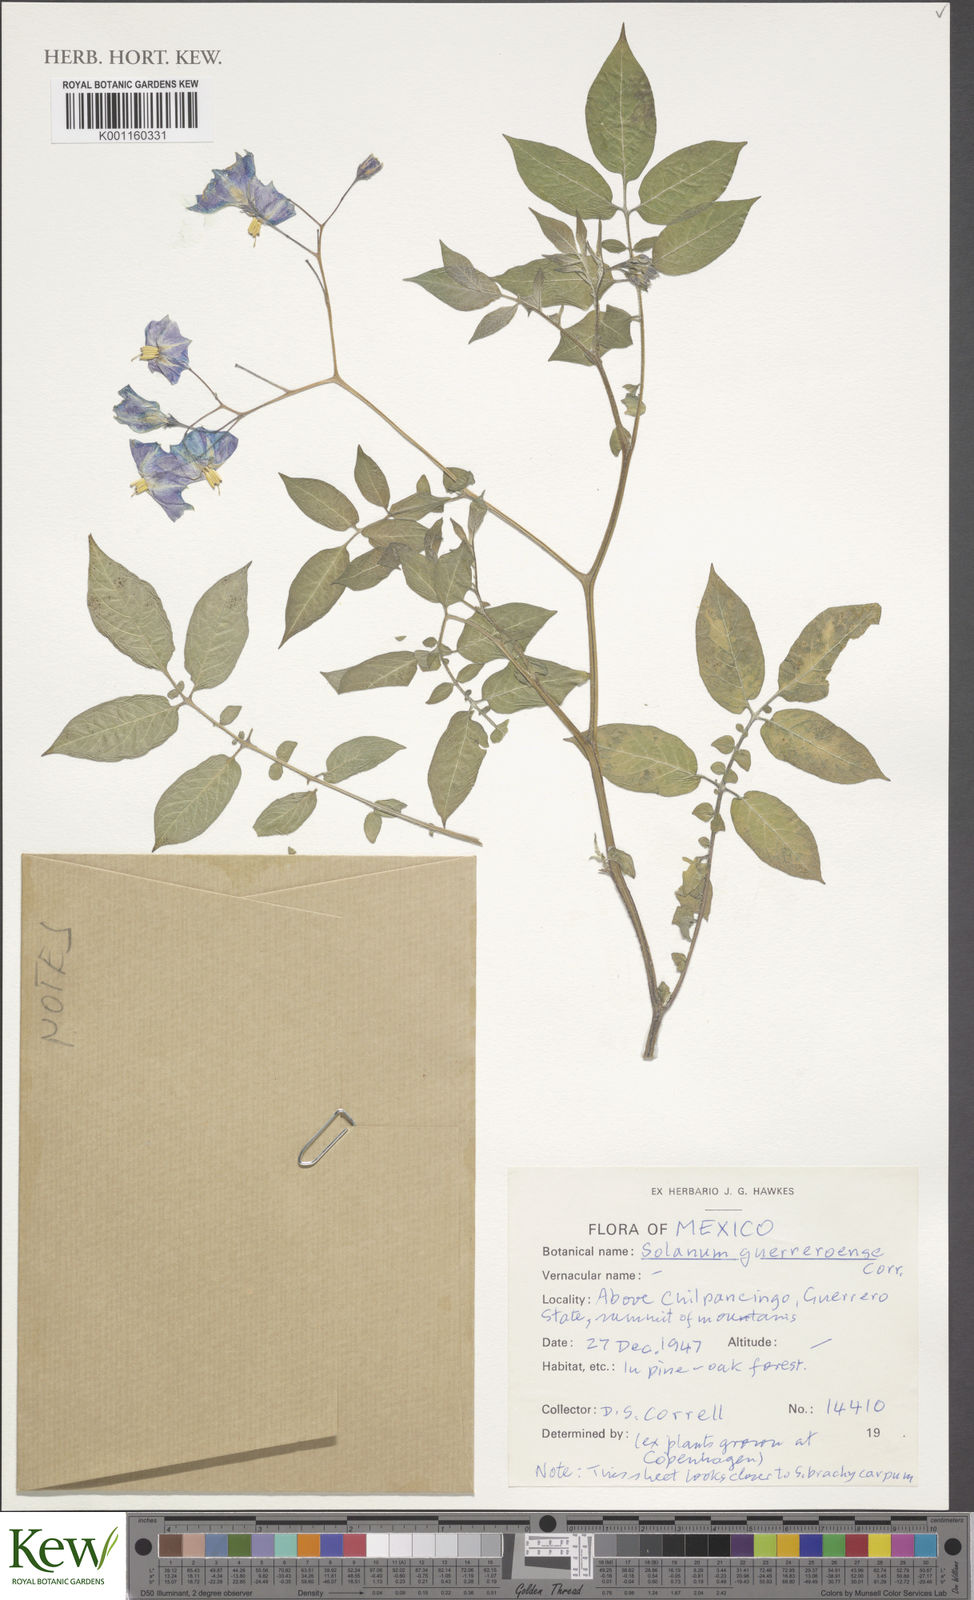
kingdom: Plantae
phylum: Tracheophyta
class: Magnoliopsida
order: Solanales
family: Solanaceae
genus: Solanum
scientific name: Solanum guerreroense
